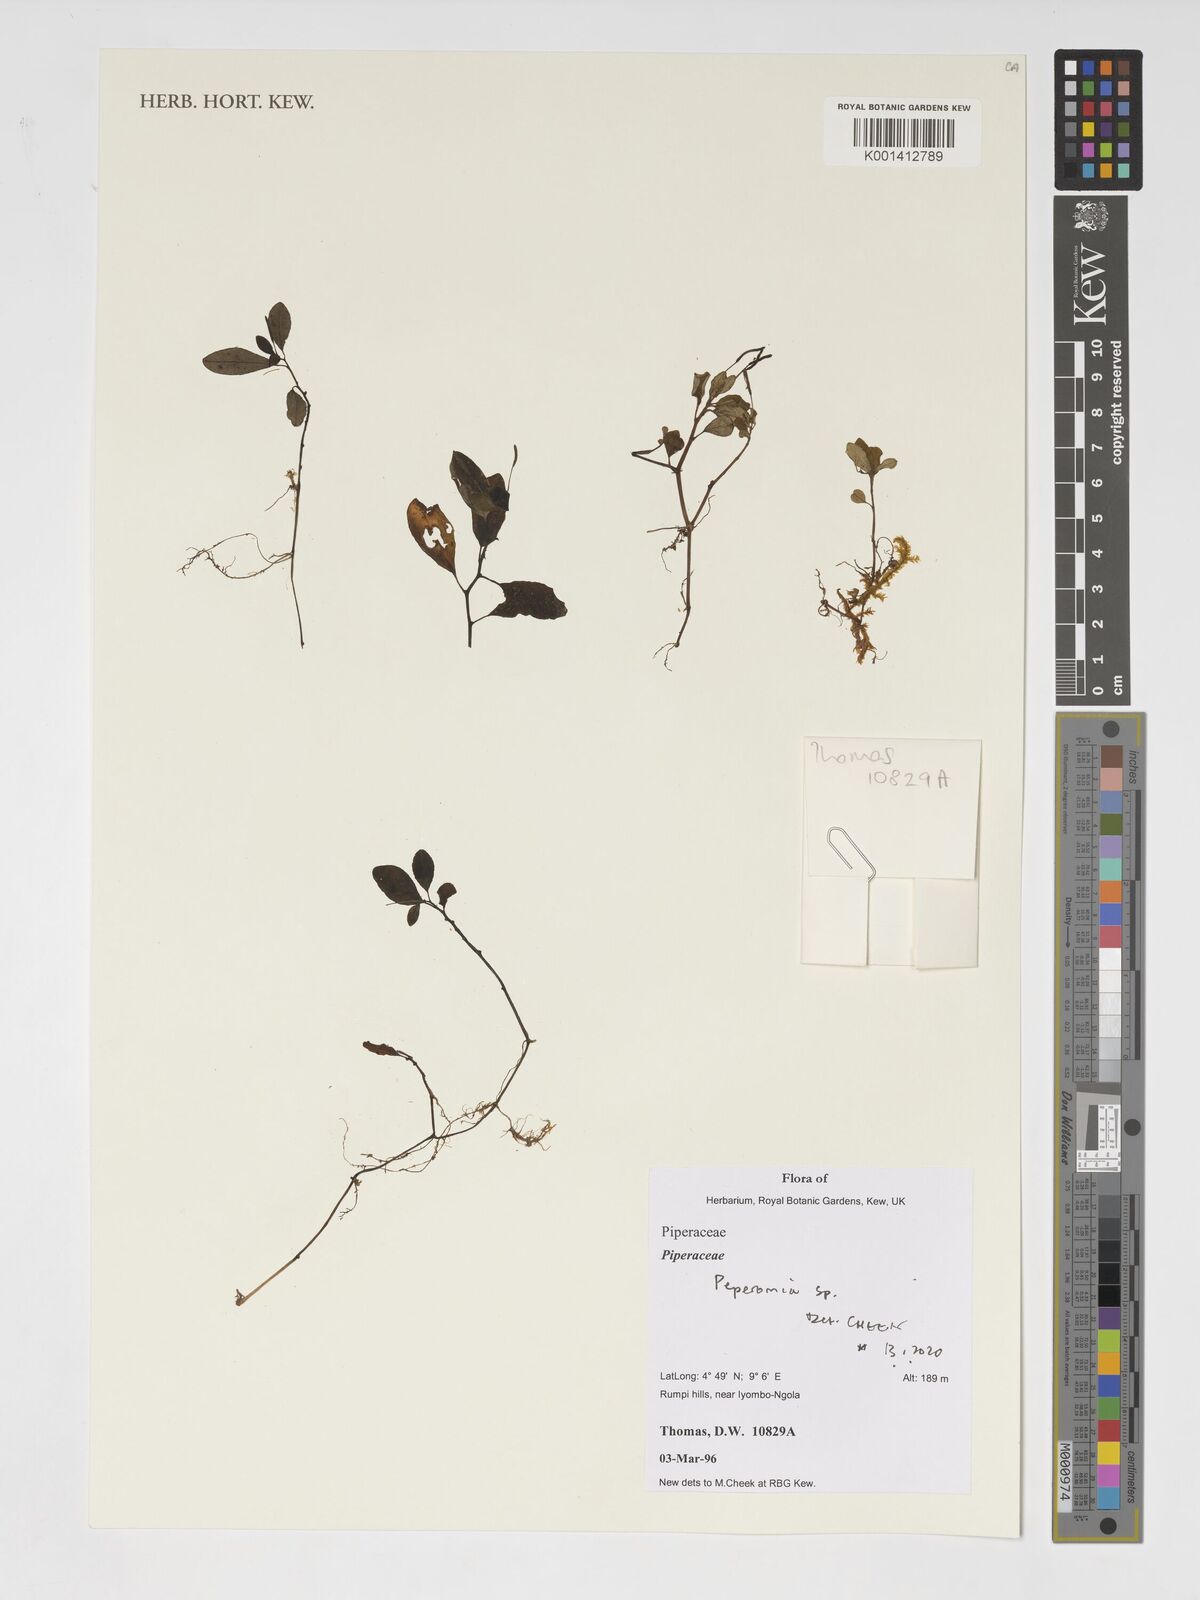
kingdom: Plantae
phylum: Tracheophyta
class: Magnoliopsida
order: Piperales
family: Piperaceae
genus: Peperomia
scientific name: Peperomia
